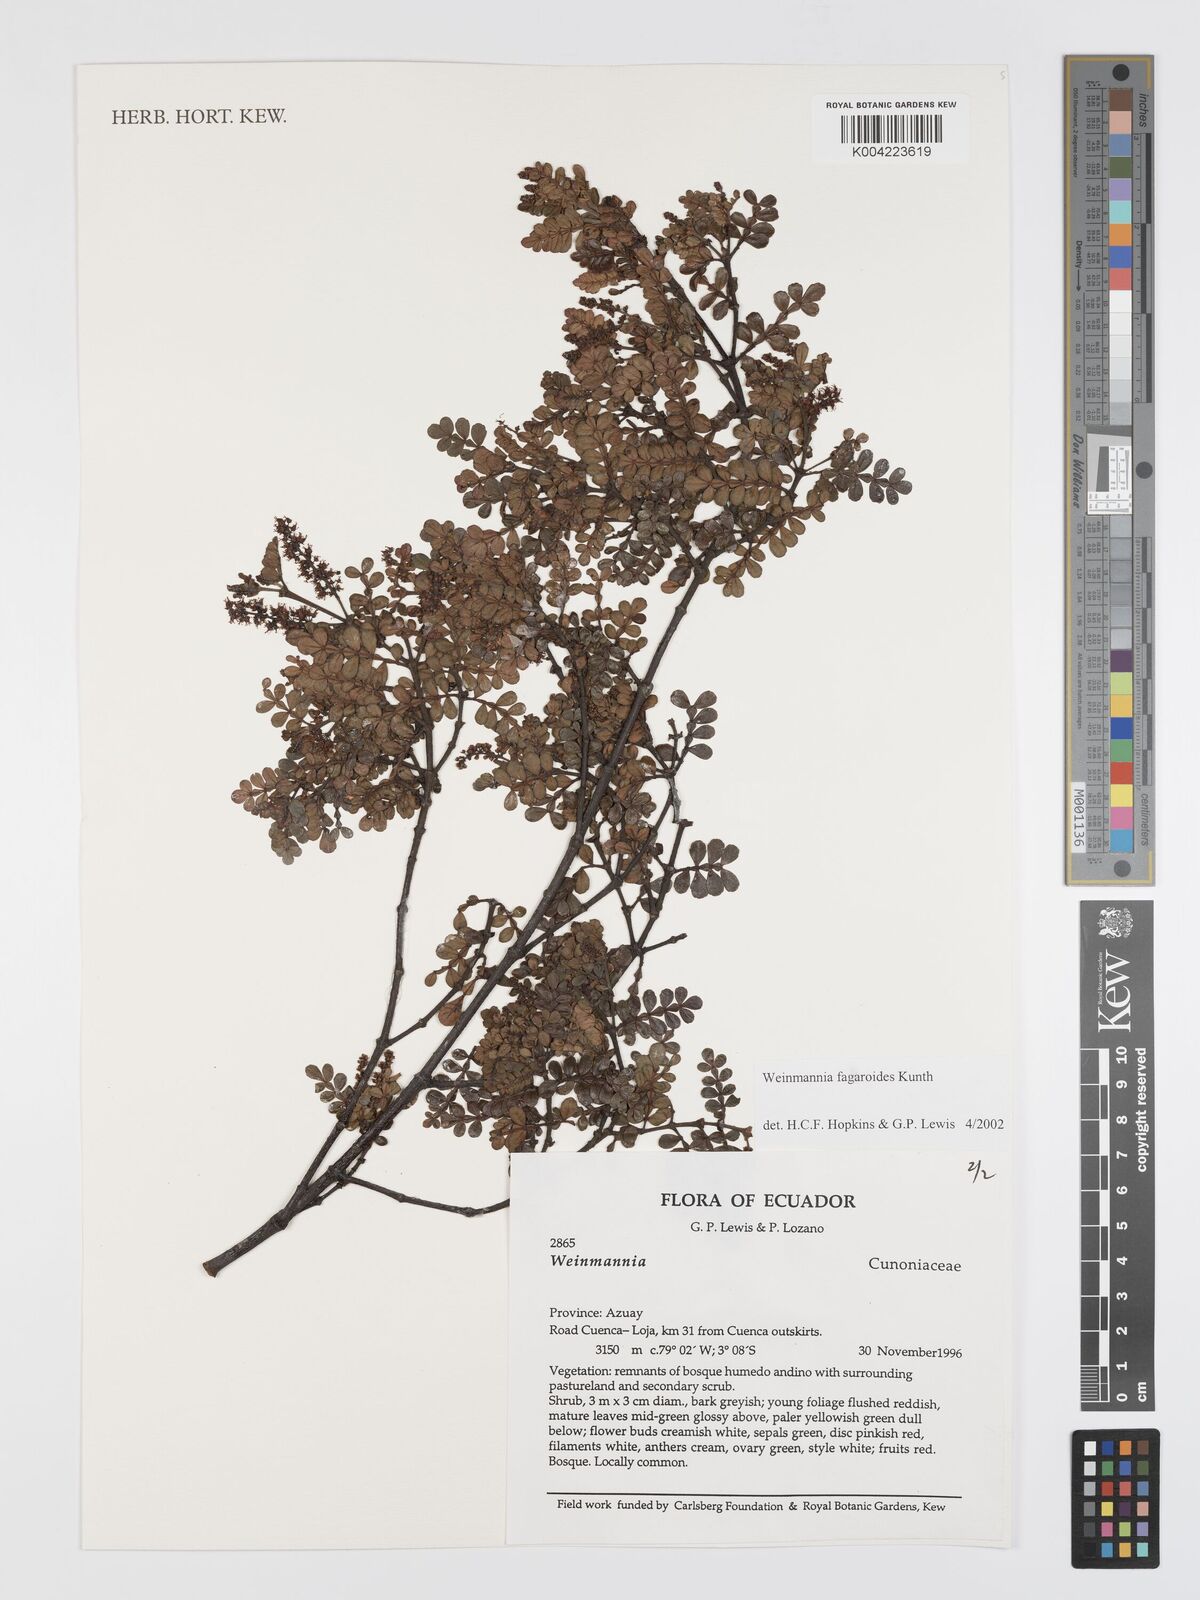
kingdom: Plantae
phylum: Tracheophyta
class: Magnoliopsida
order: Oxalidales
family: Cunoniaceae
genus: Weinmannia
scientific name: Weinmannia fagaroides
